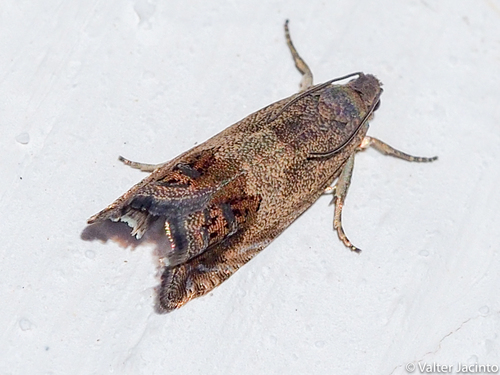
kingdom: Animalia
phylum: Arthropoda
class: Insecta
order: Lepidoptera
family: Tortricidae
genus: Cydia
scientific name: Cydia pomonella
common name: Codling moth
